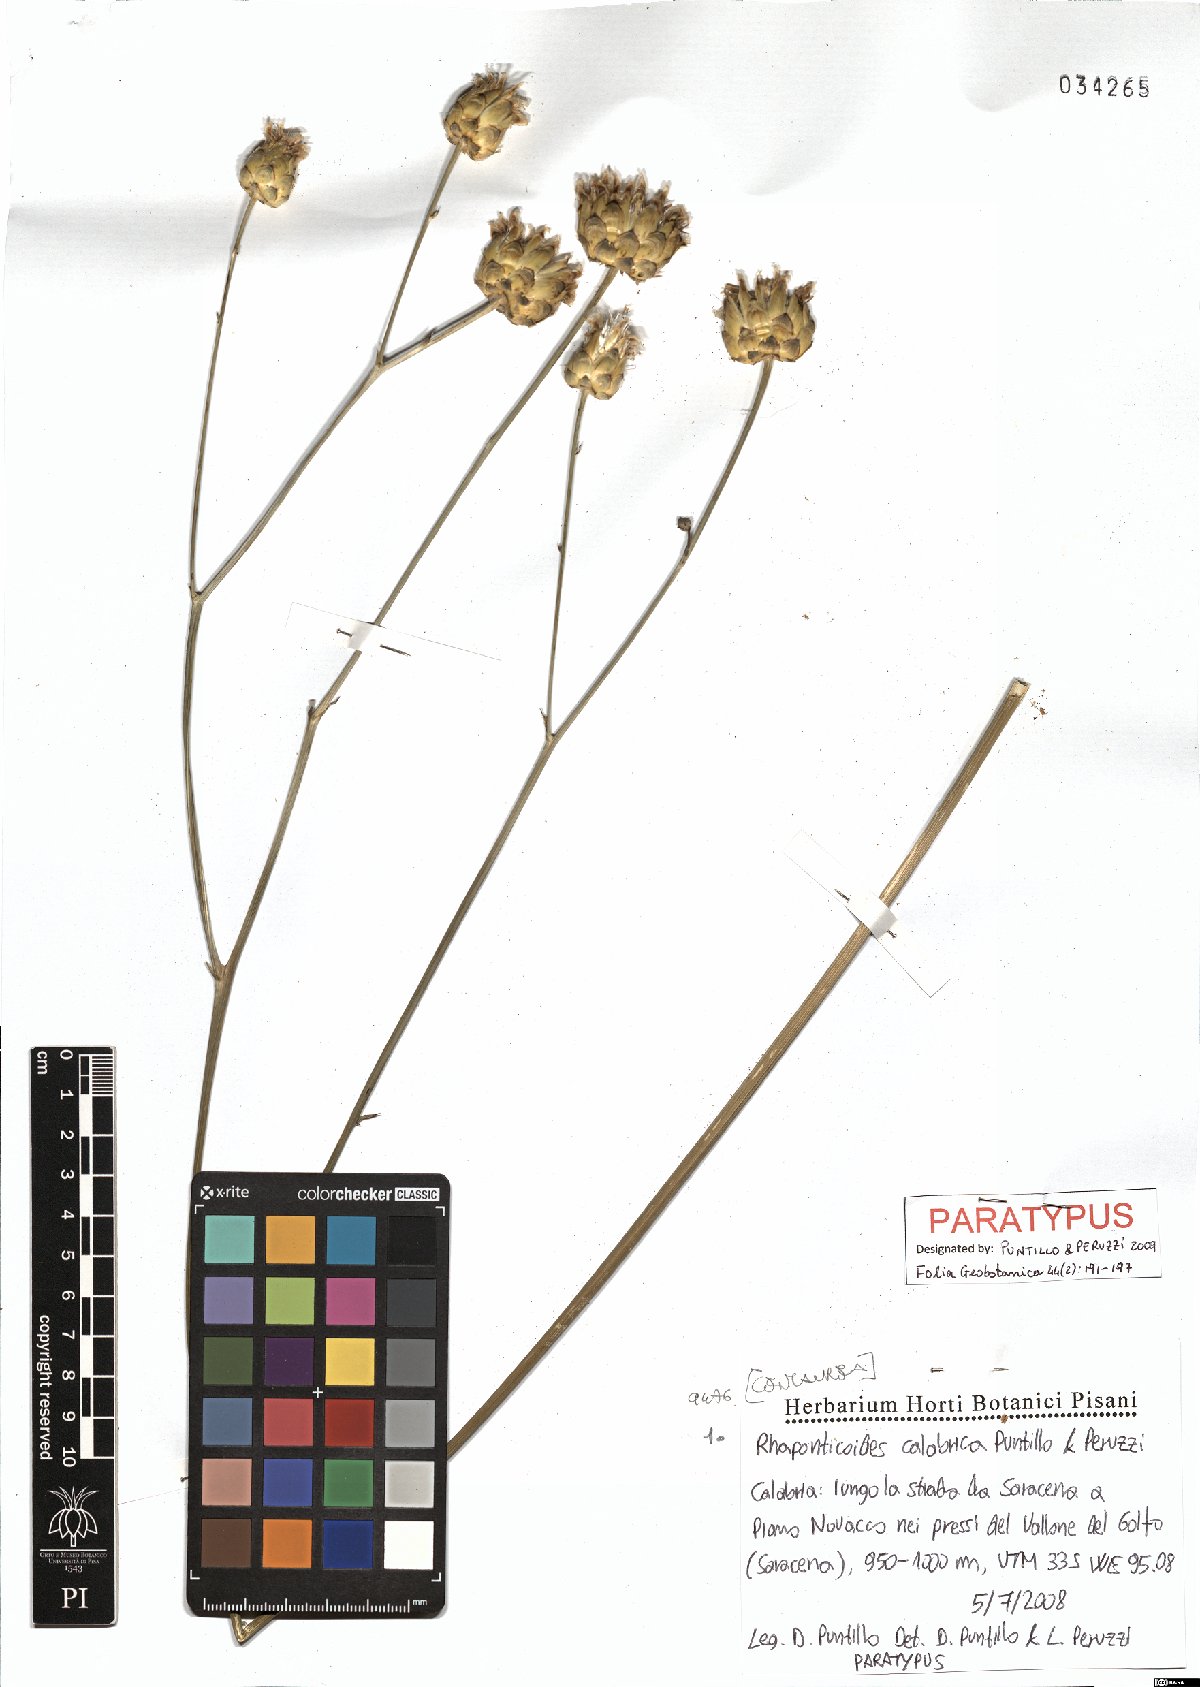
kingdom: Plantae
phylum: Tracheophyta
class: Magnoliopsida
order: Asterales
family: Asteraceae
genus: Rhaponticoides
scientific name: Rhaponticoides calabrica
